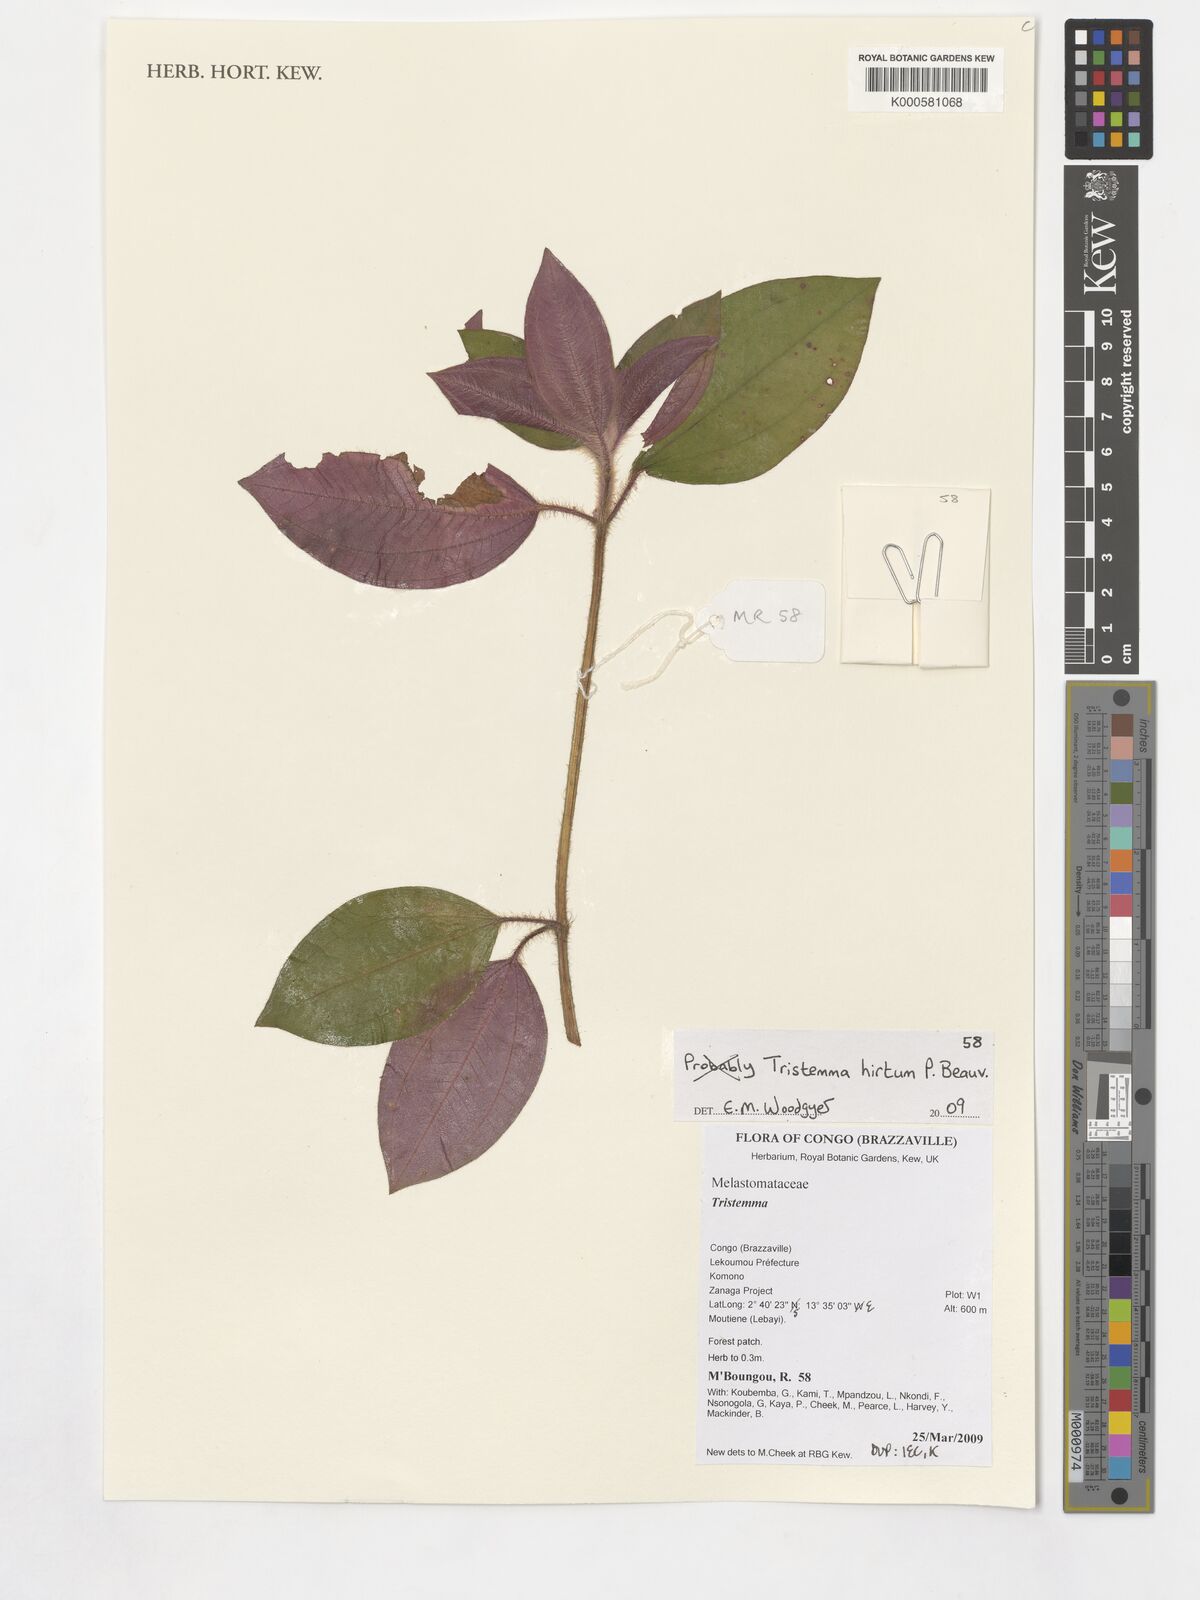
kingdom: Plantae
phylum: Tracheophyta
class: Magnoliopsida
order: Myrtales
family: Melastomataceae
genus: Tristemma
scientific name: Tristemma hirtum
